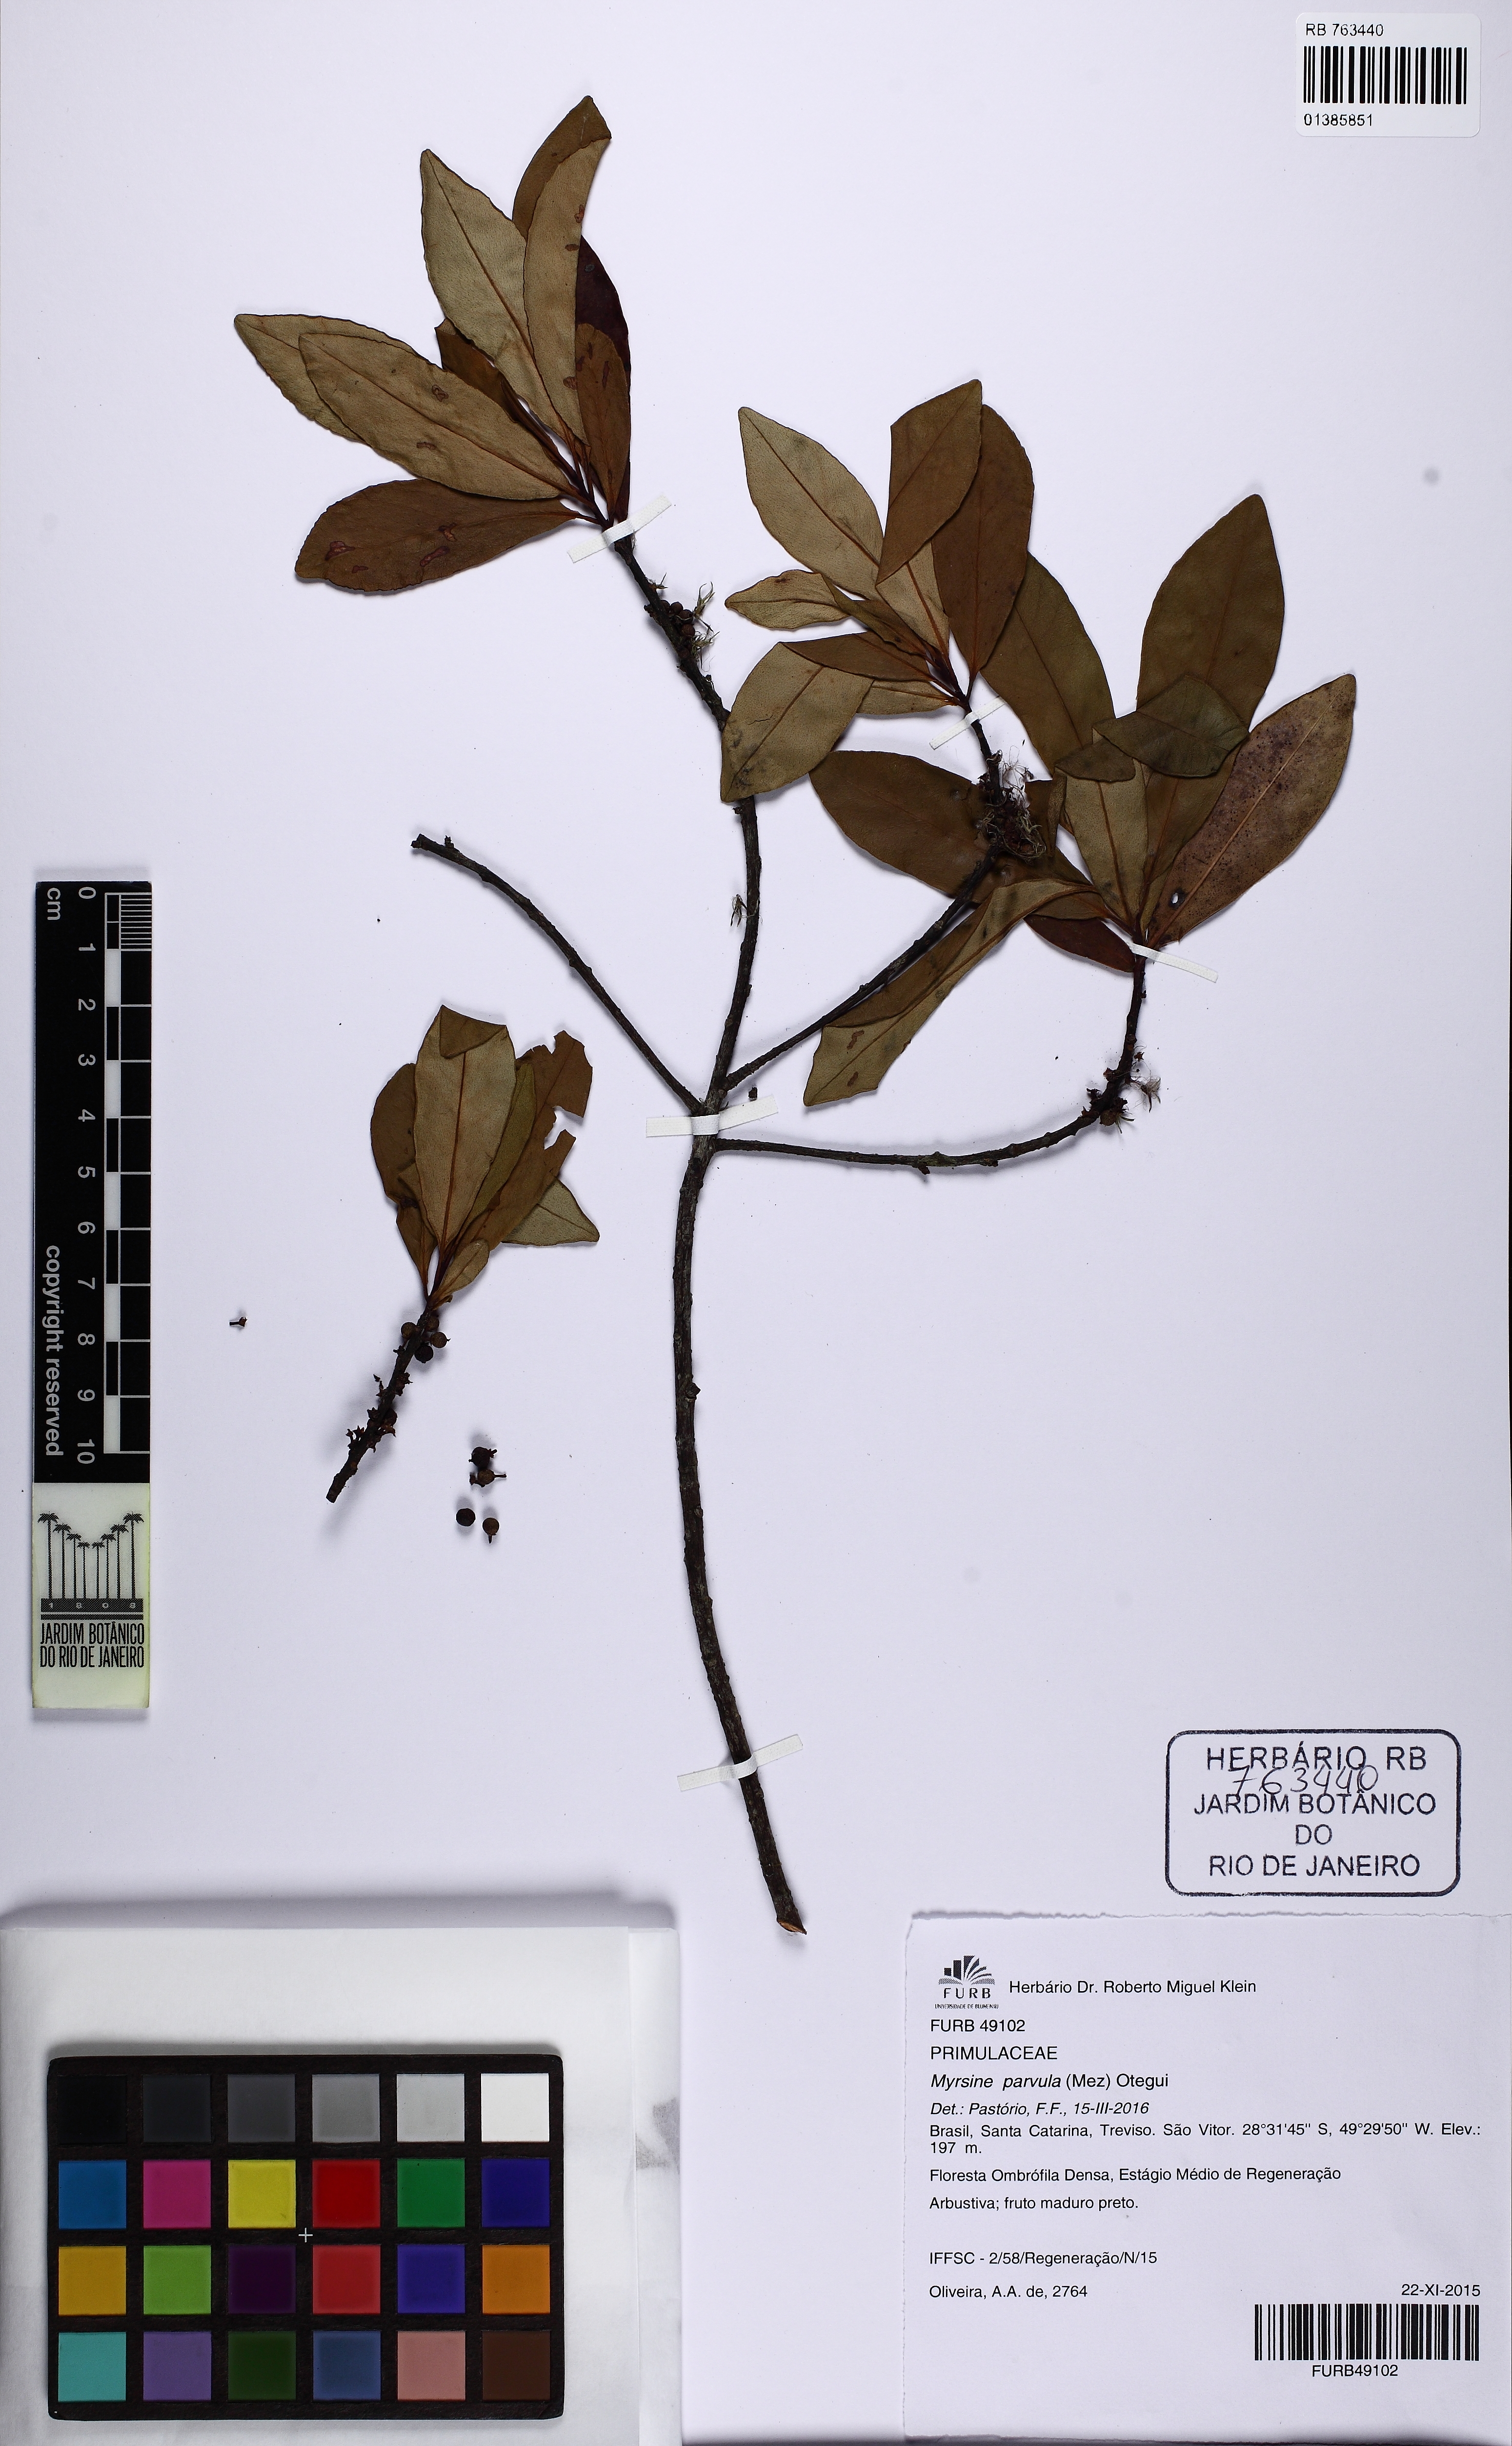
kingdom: Plantae
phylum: Tracheophyta
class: Magnoliopsida
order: Ericales
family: Primulaceae
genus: Myrsine
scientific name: Myrsine lorentziana
